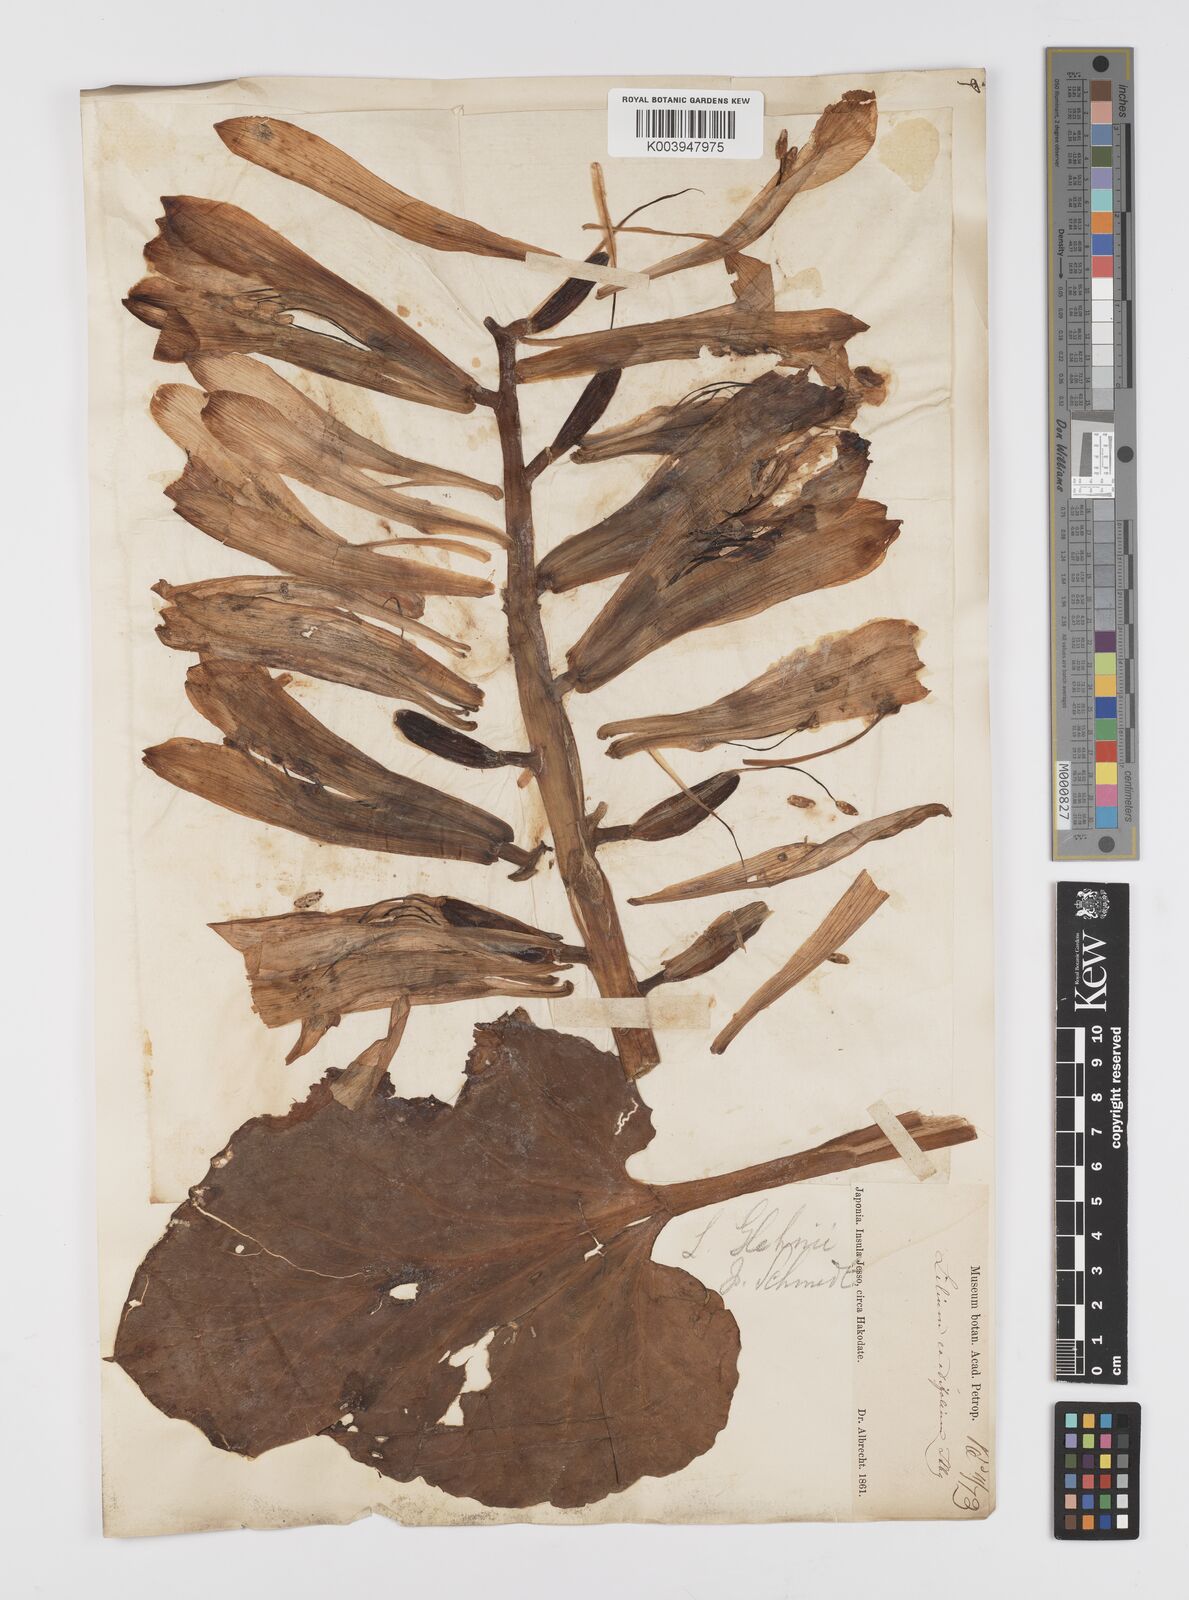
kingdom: Plantae
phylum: Tracheophyta
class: Liliopsida
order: Liliales
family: Liliaceae
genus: Cardiocrinum
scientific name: Cardiocrinum
